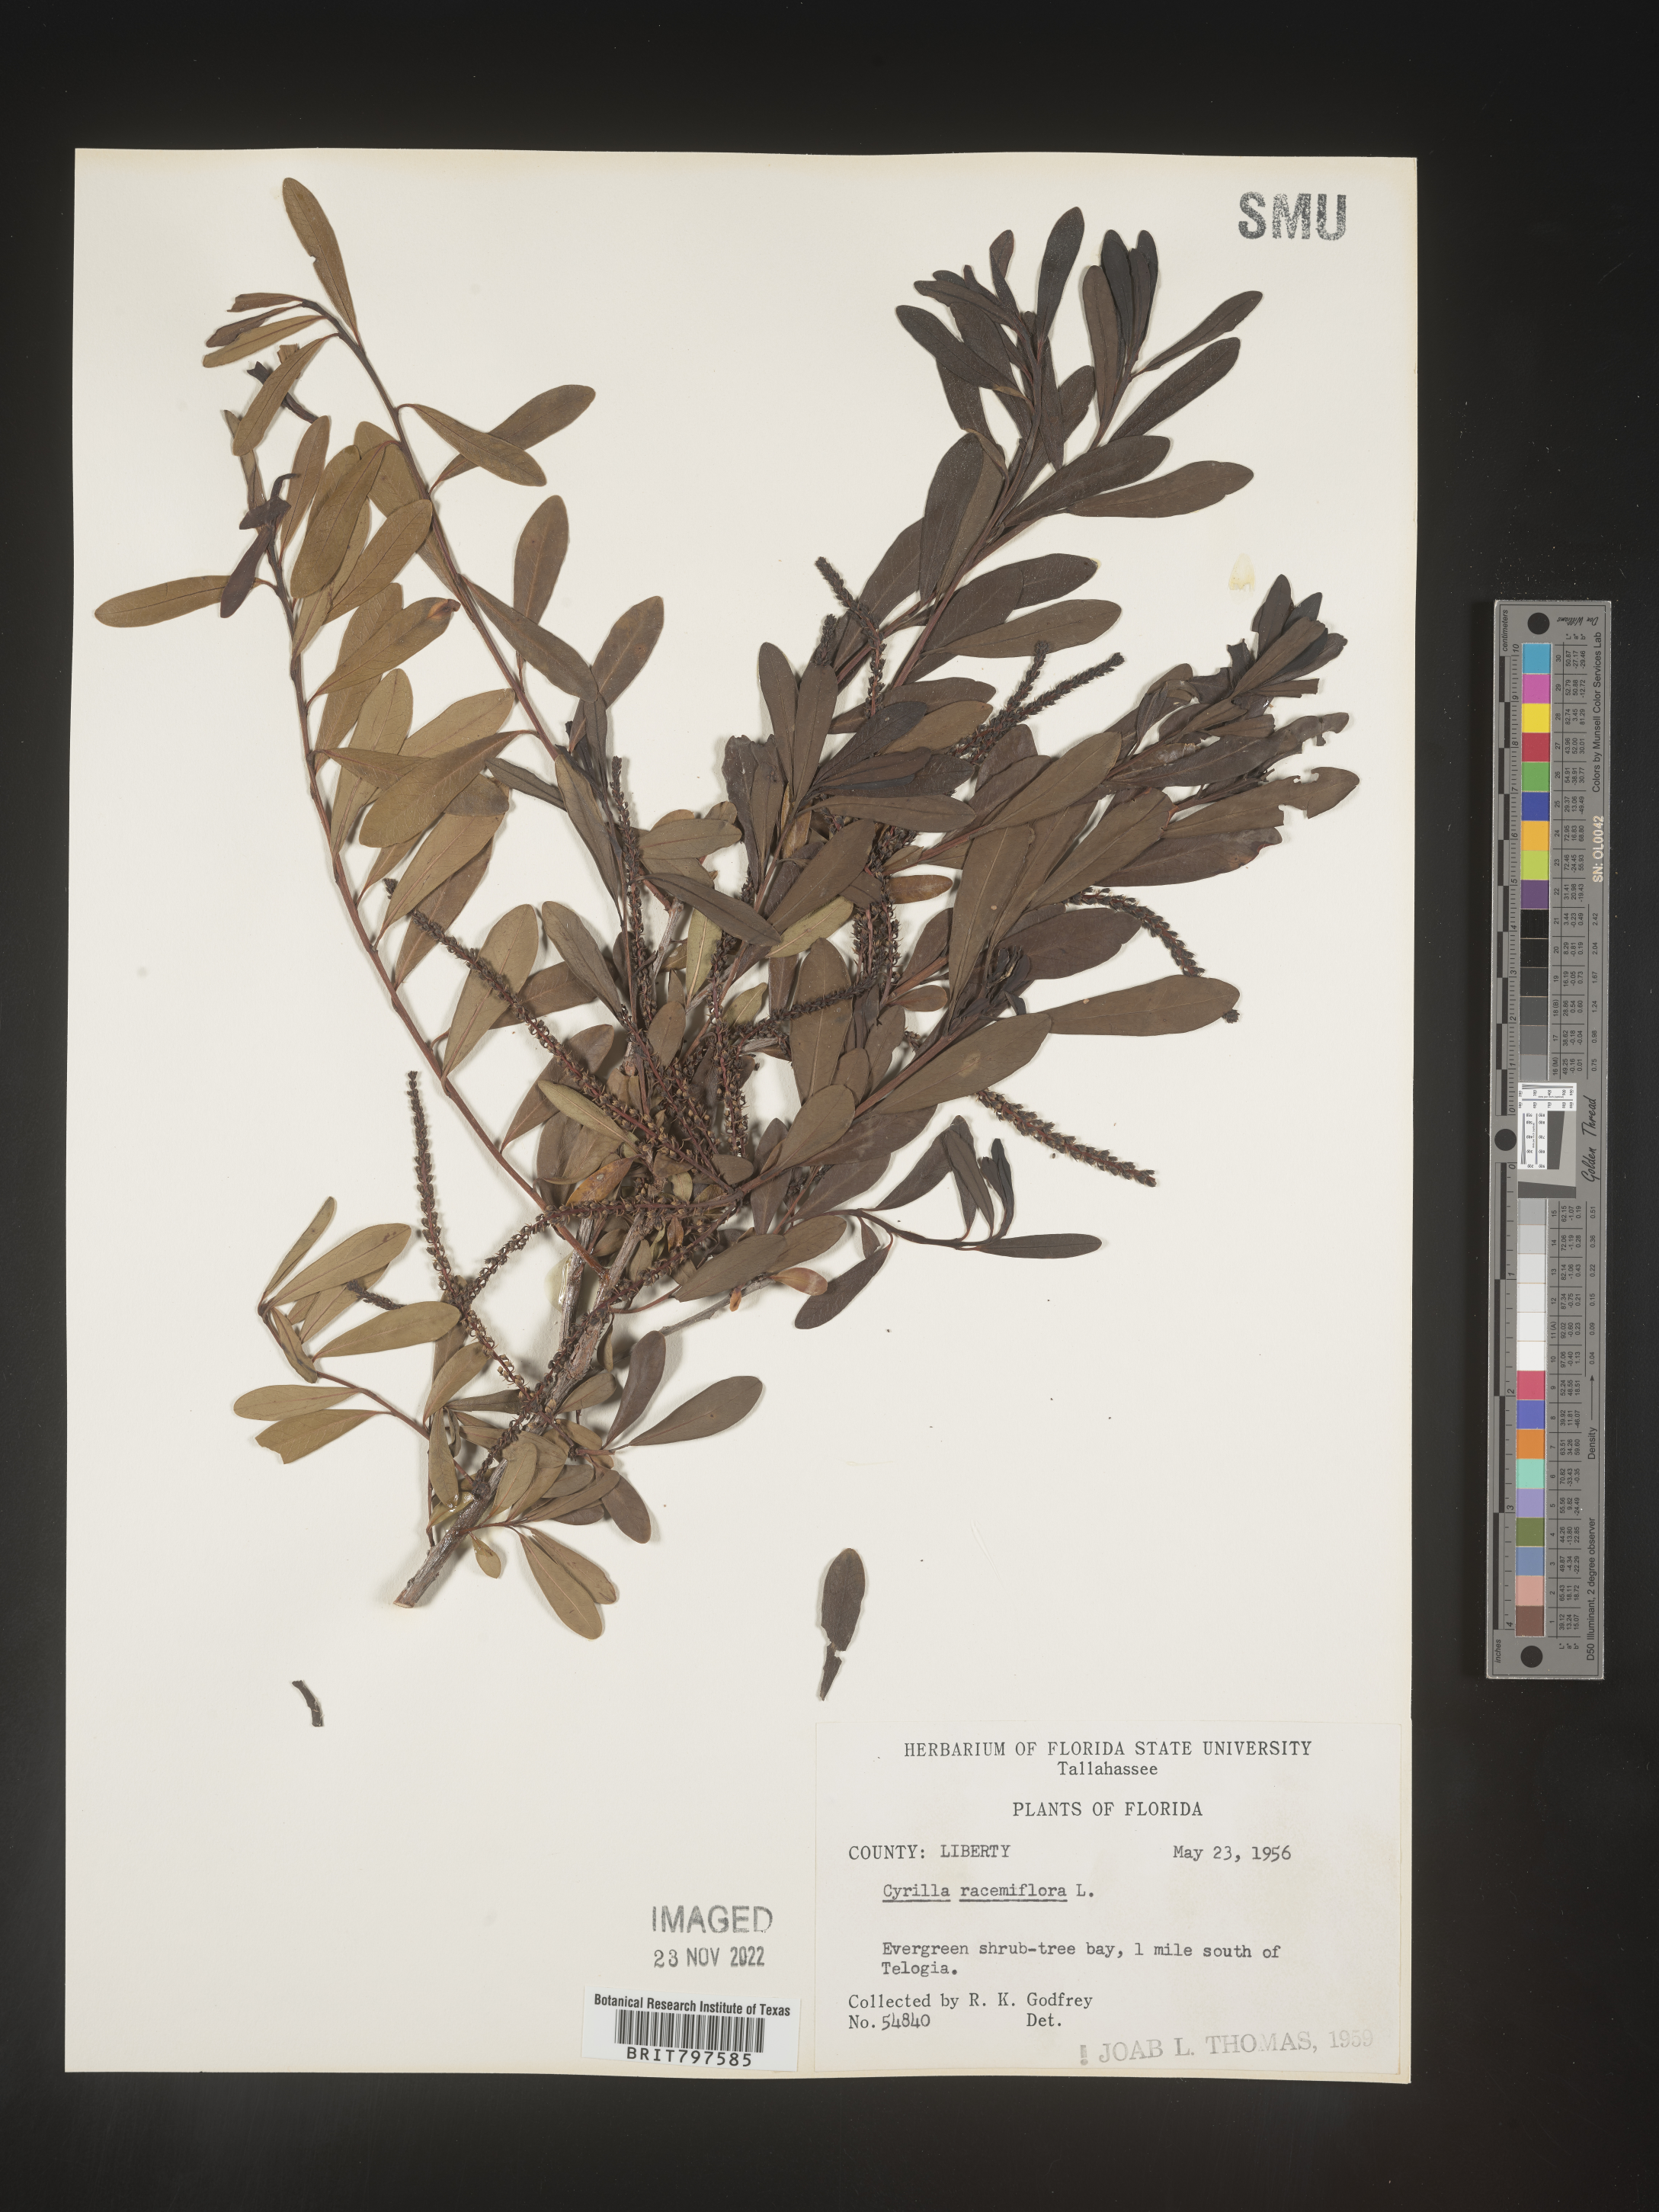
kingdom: Plantae
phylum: Tracheophyta
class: Magnoliopsida
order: Ericales
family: Cyrillaceae
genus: Cyrilla
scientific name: Cyrilla racemiflora
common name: Black titi
